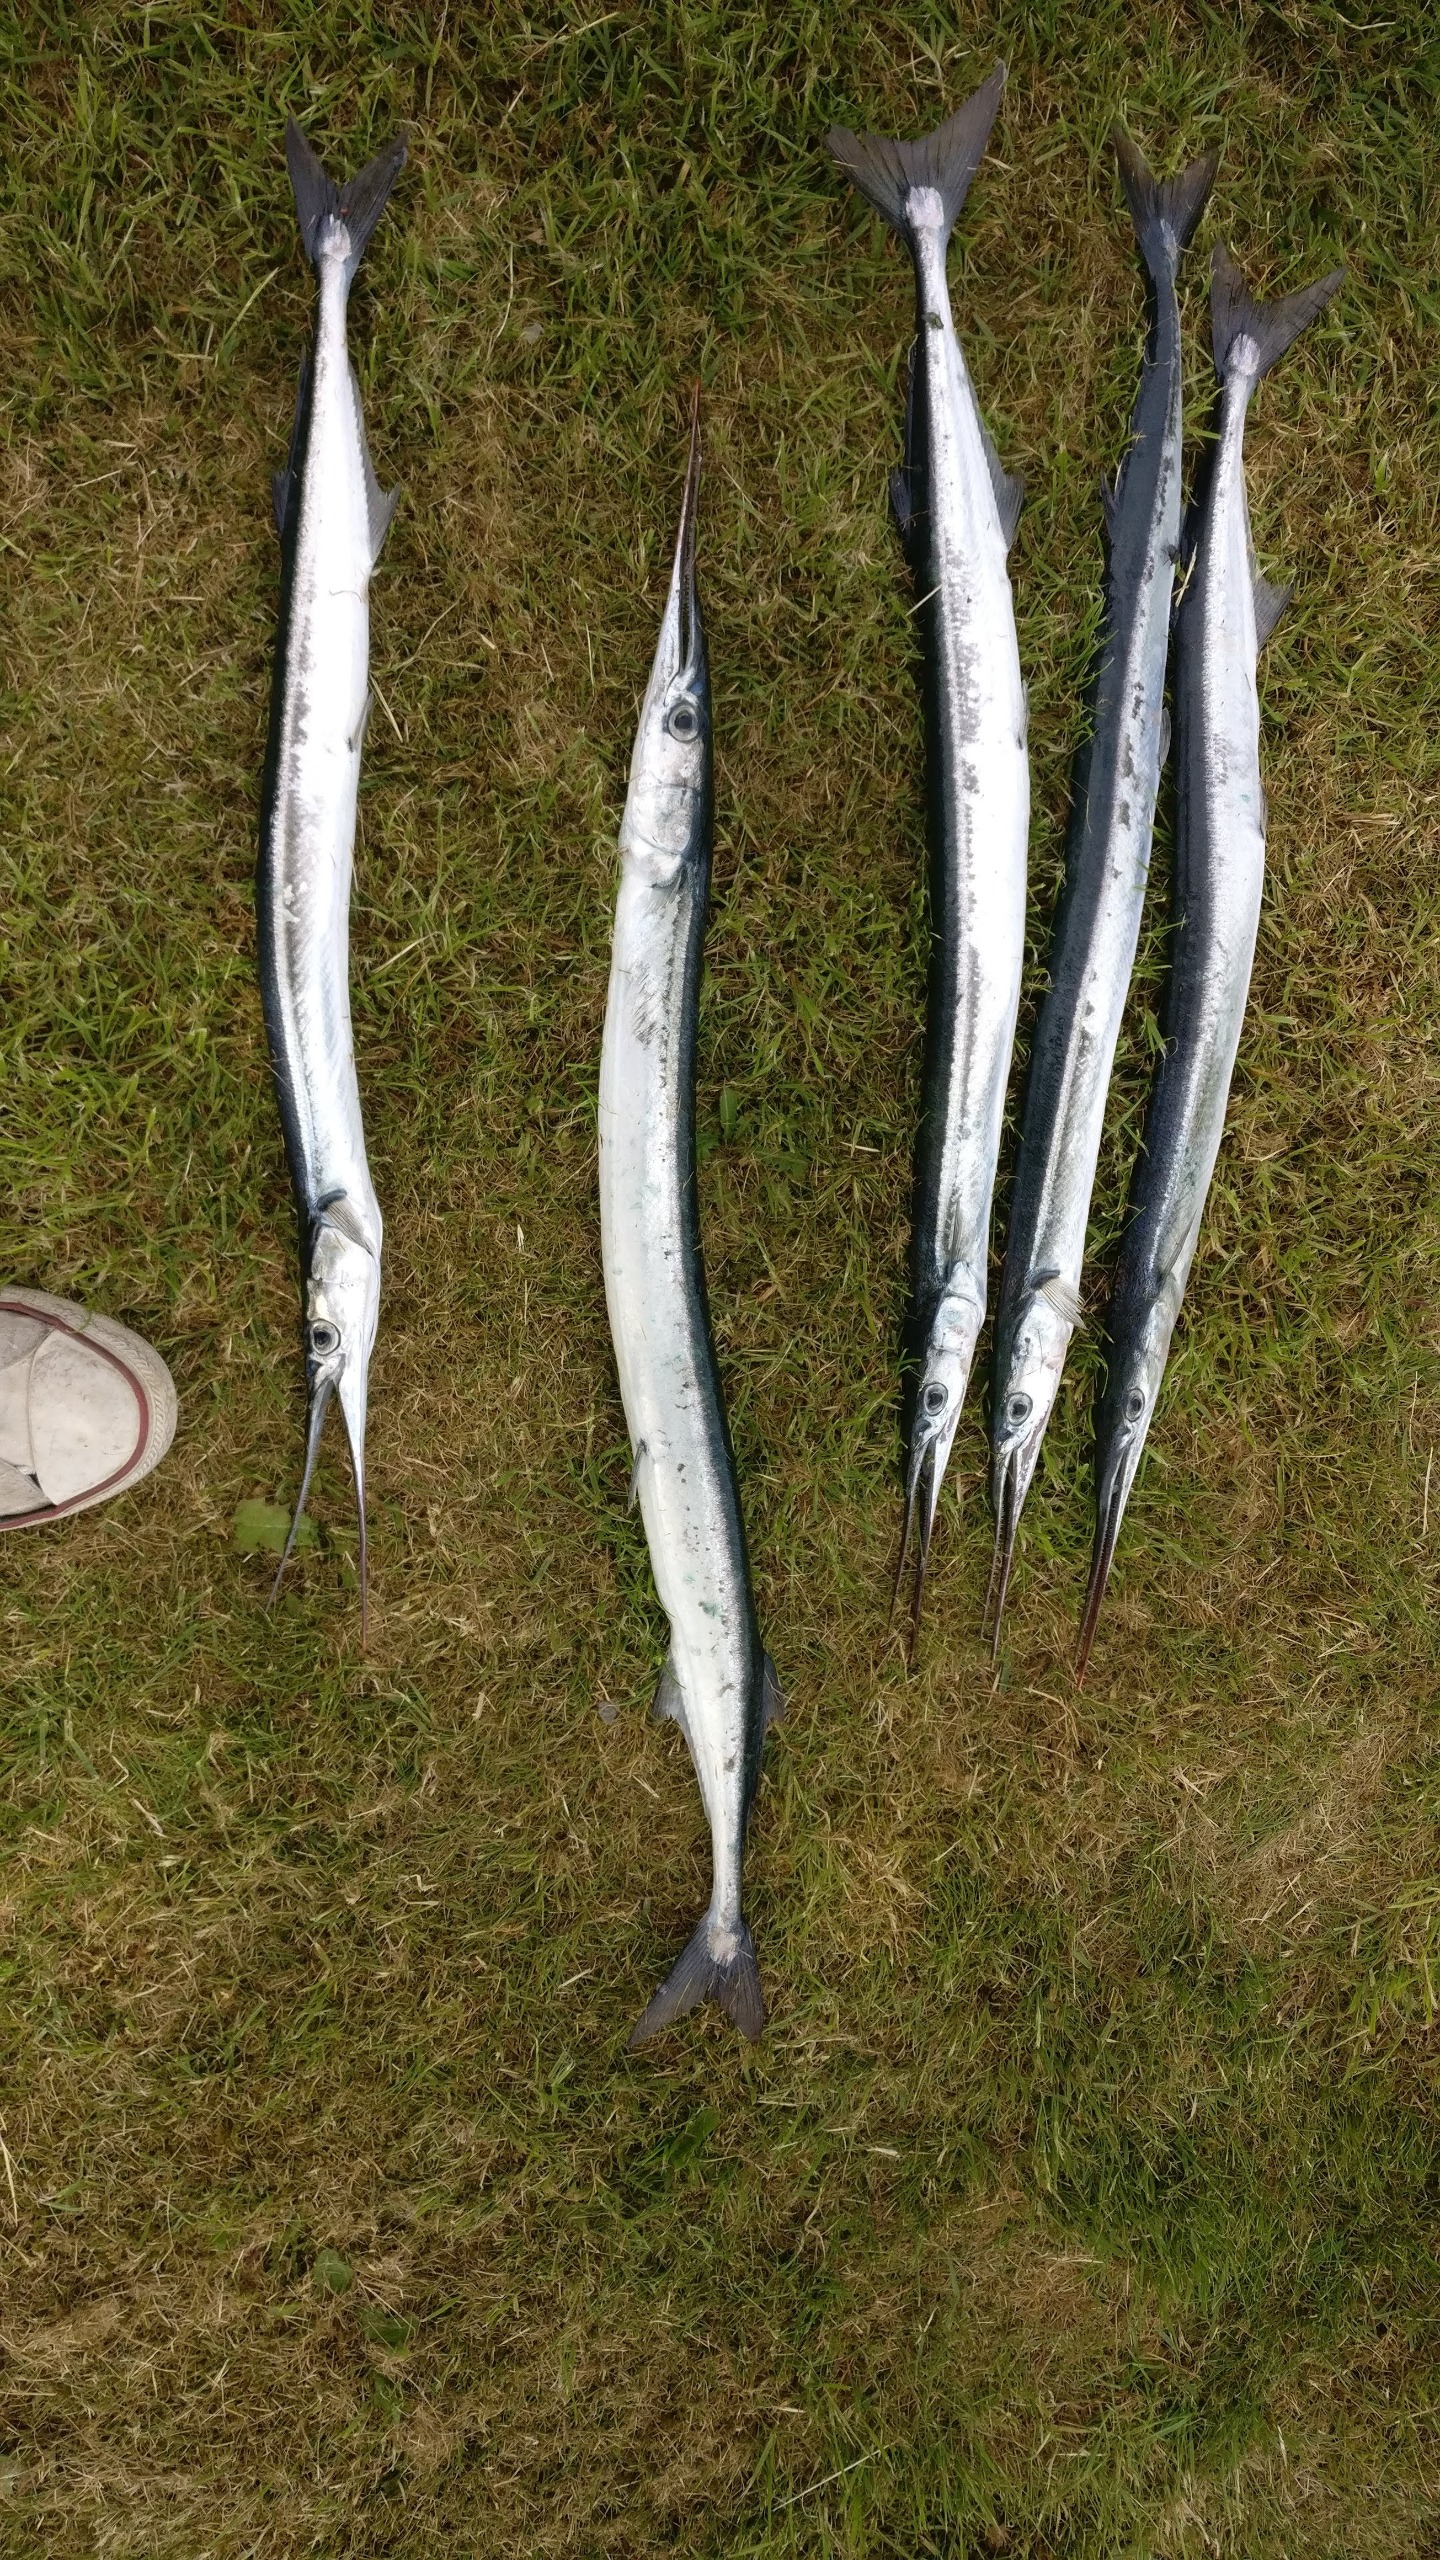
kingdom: Animalia
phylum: Chordata
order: Beloniformes
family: Belonidae
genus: Belone
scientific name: Belone belone
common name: Hornfisk
